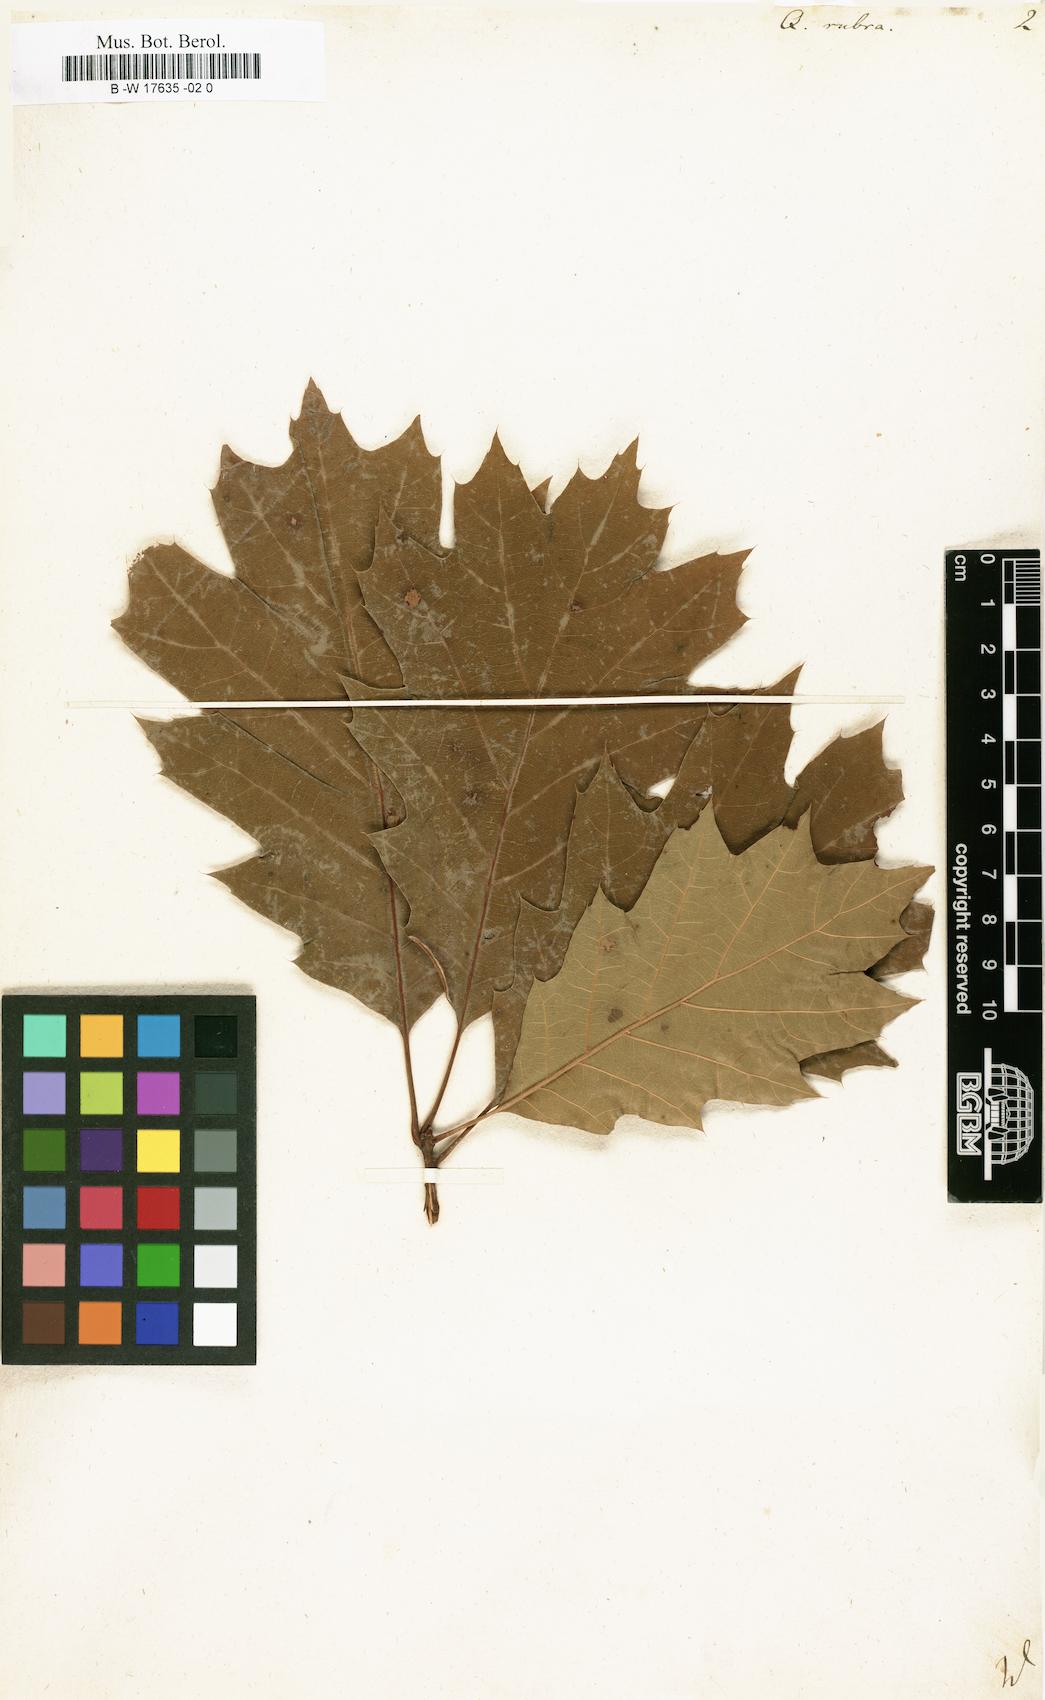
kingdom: Plantae
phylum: Tracheophyta
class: Magnoliopsida
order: Fagales
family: Fagaceae
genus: Quercus
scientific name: Quercus rubra
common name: Red oak
